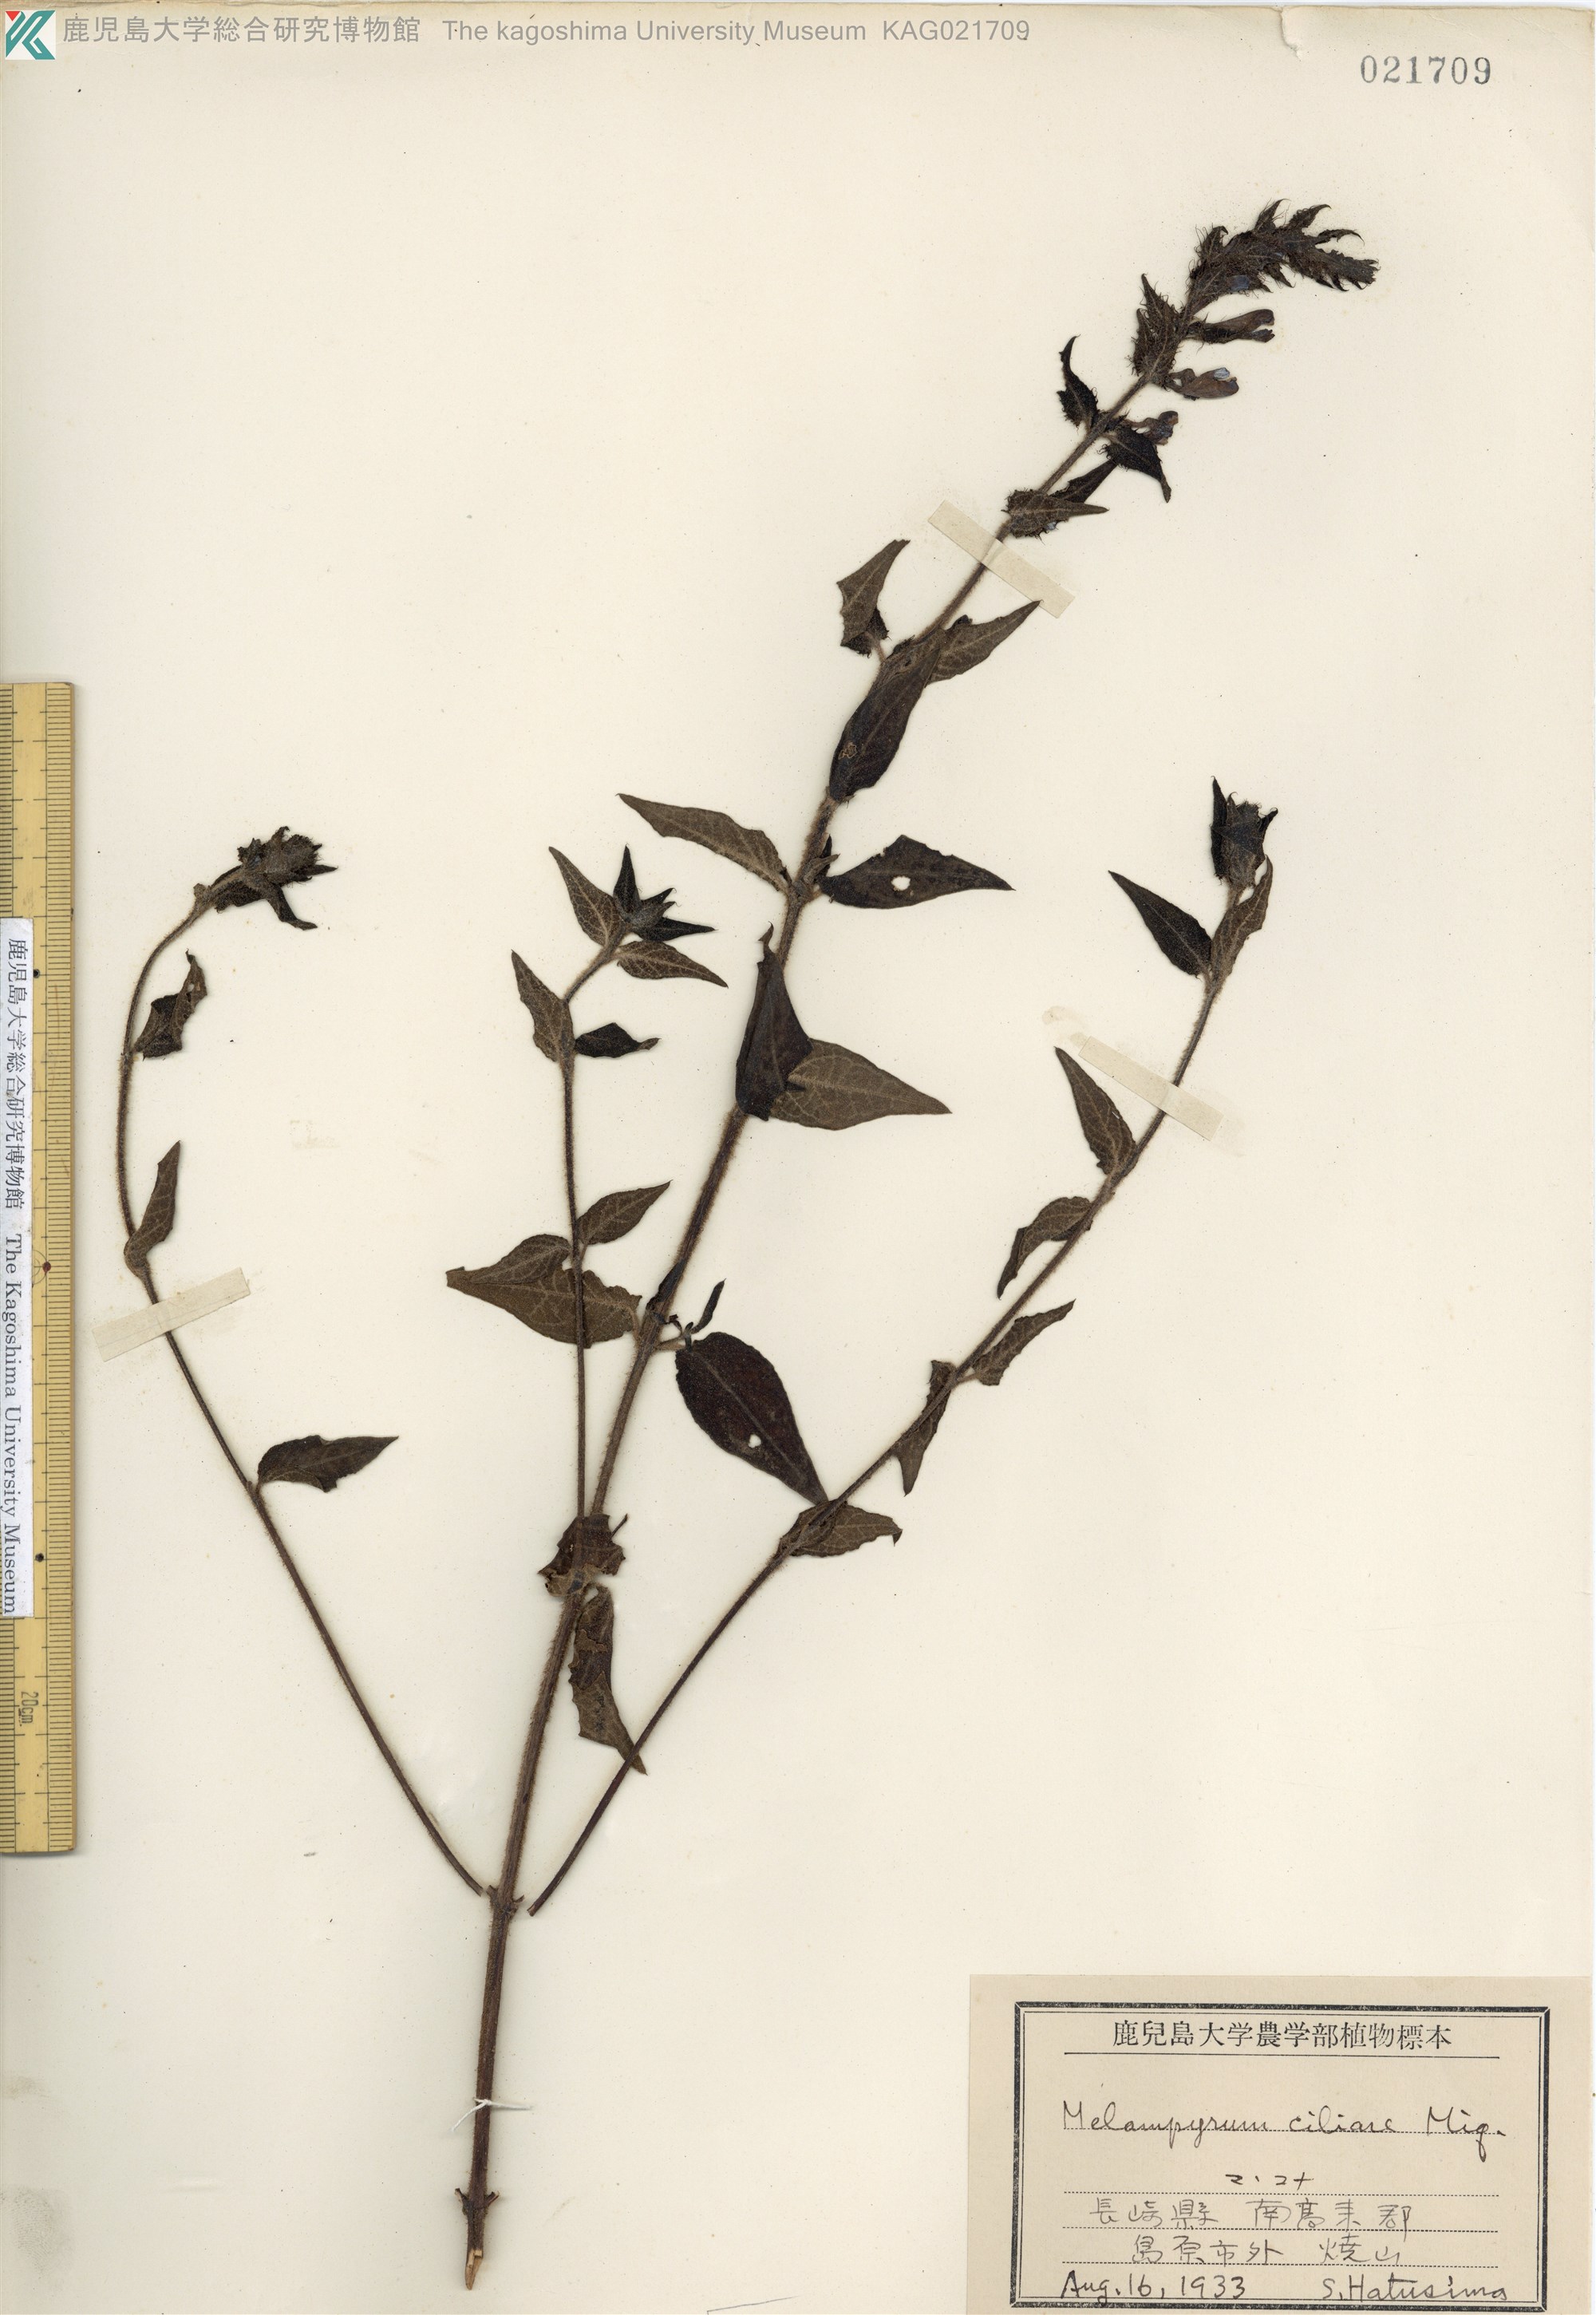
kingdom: Plantae
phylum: Tracheophyta
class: Magnoliopsida
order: Lamiales
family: Orobanchaceae
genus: Melampyrum
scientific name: Melampyrum roseum
